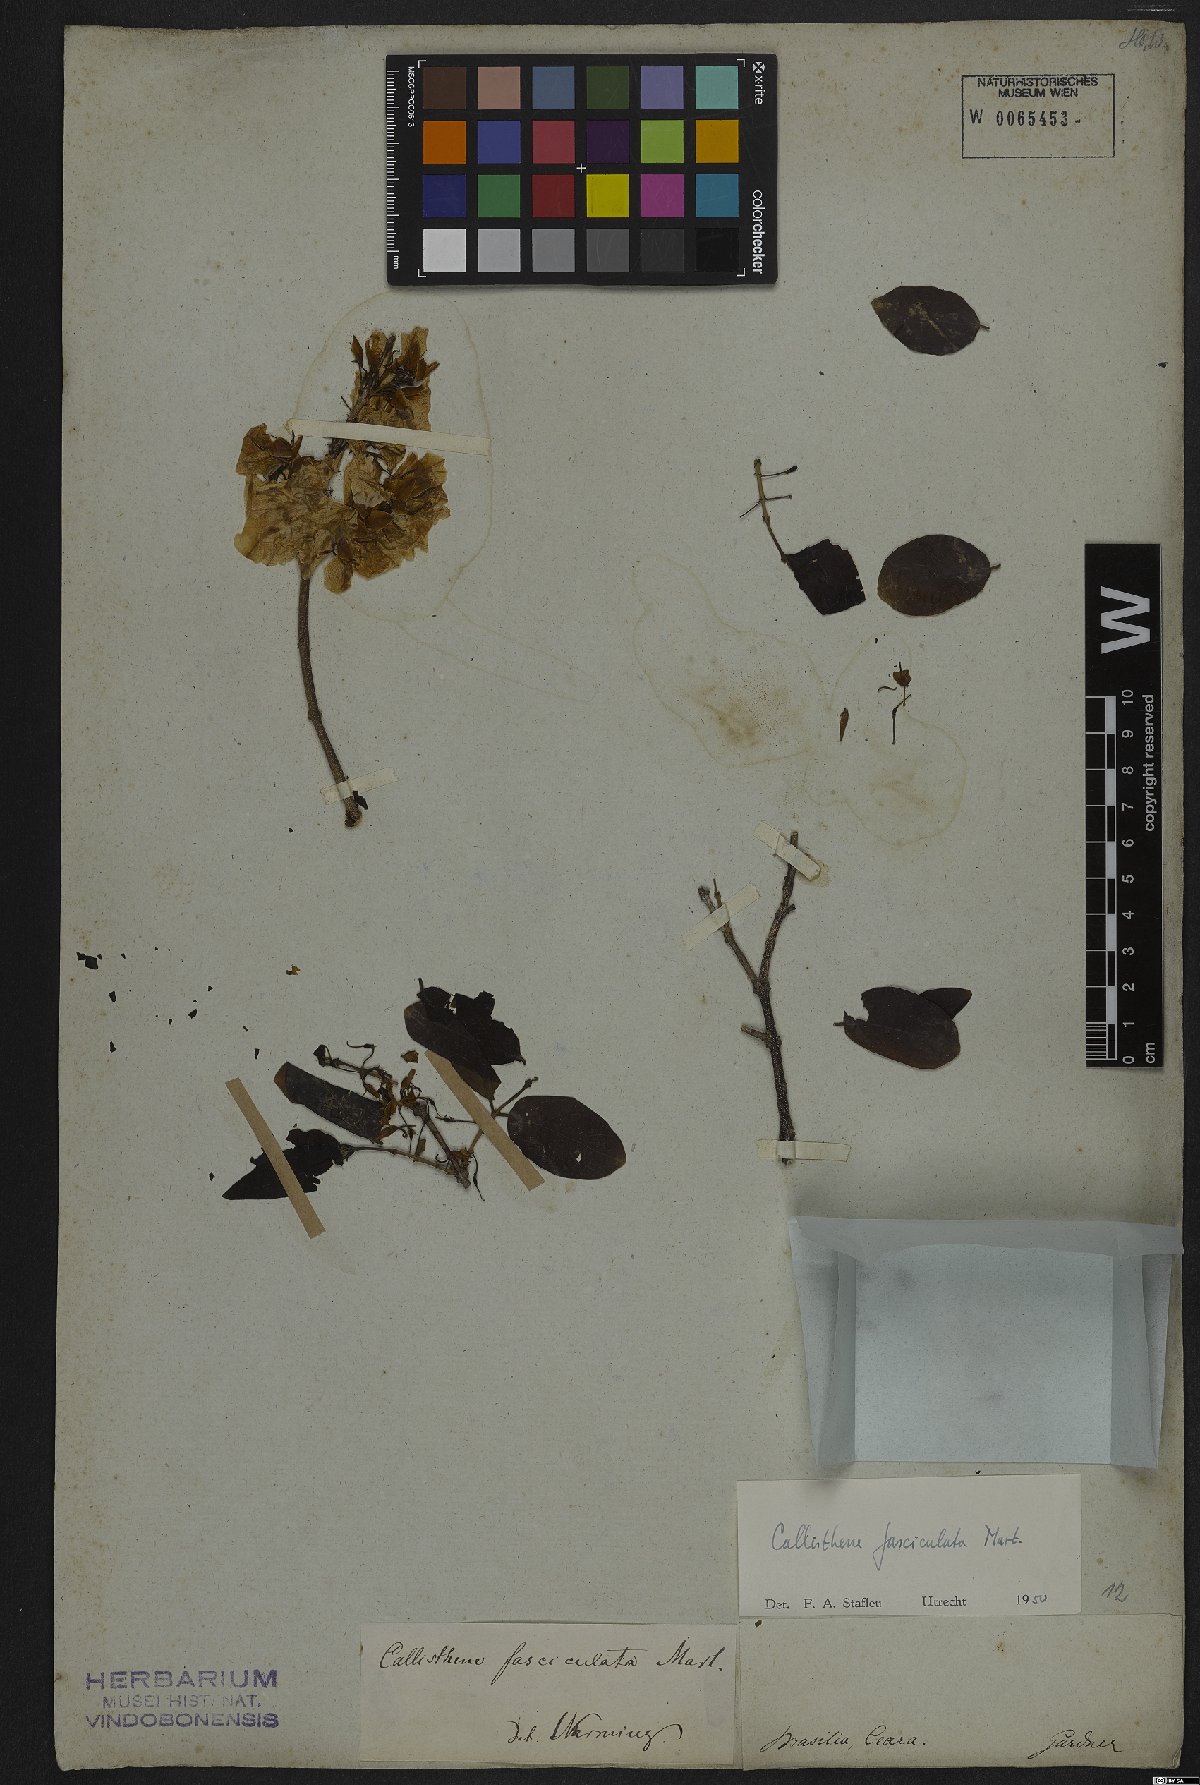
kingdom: Plantae
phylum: Tracheophyta
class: Magnoliopsida
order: Myrtales
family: Vochysiaceae
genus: Callisthene
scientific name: Callisthene fasciculata
